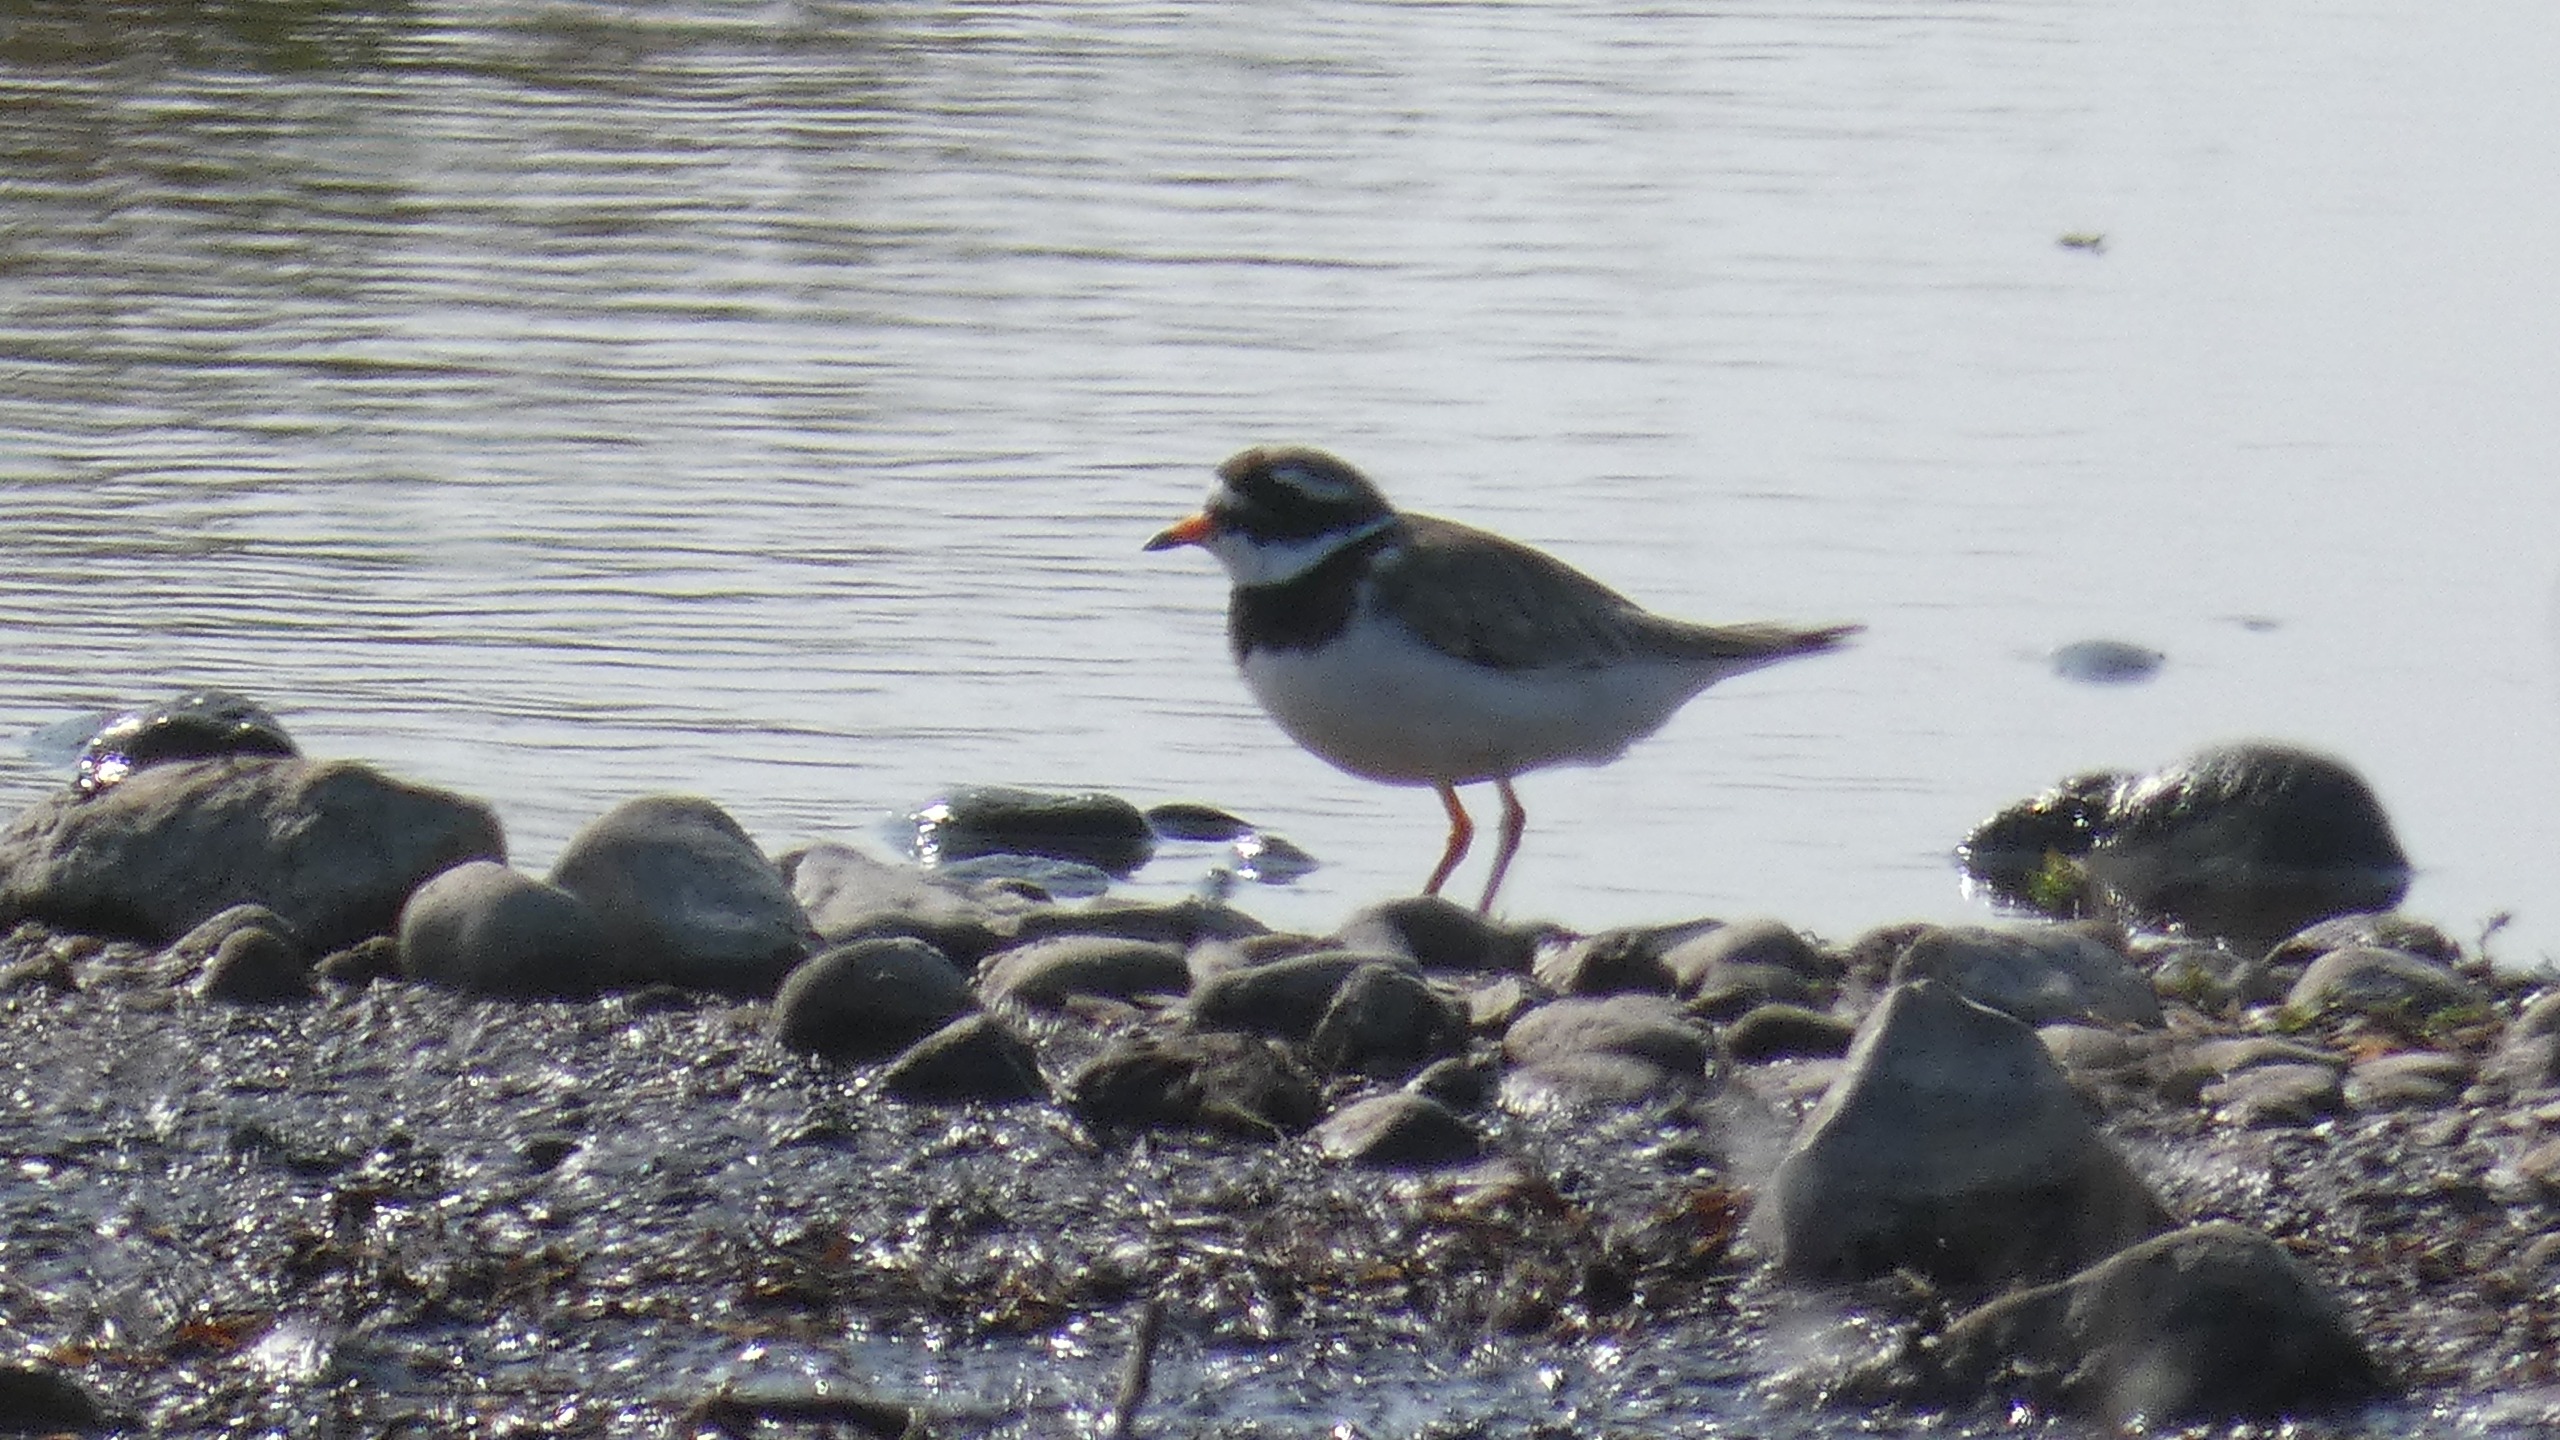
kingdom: Animalia
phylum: Chordata
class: Aves
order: Charadriiformes
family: Charadriidae
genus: Charadrius
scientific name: Charadrius hiaticula
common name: Stor præstekrave
